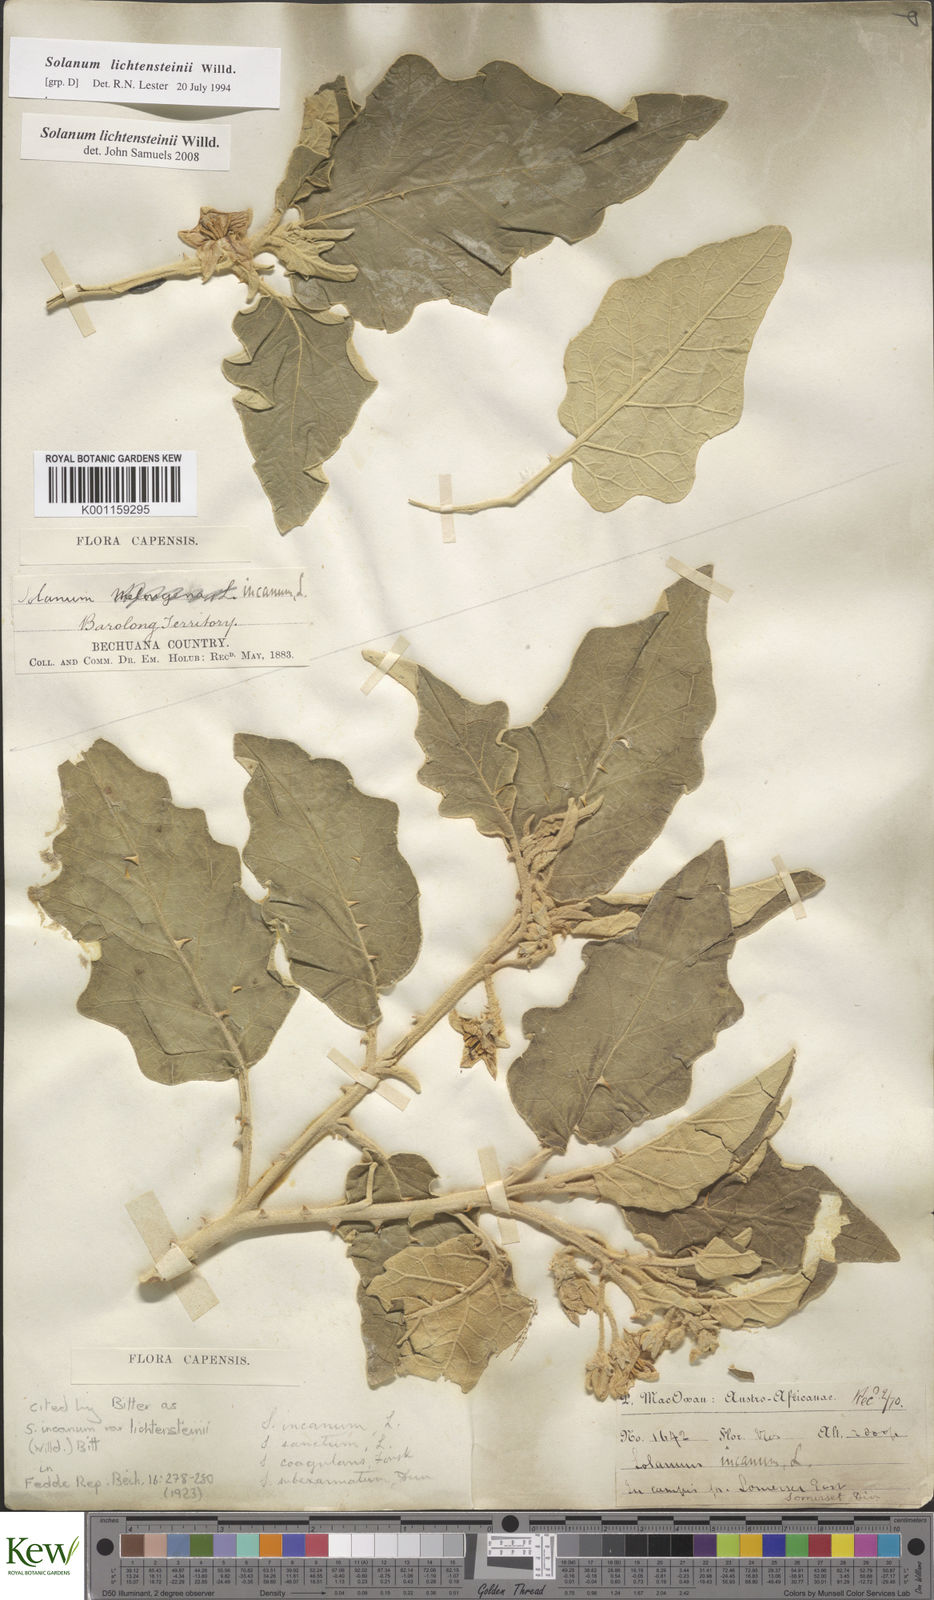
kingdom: Plantae
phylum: Tracheophyta
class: Magnoliopsida
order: Solanales
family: Solanaceae
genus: Solanum
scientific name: Solanum lichtensteinii
